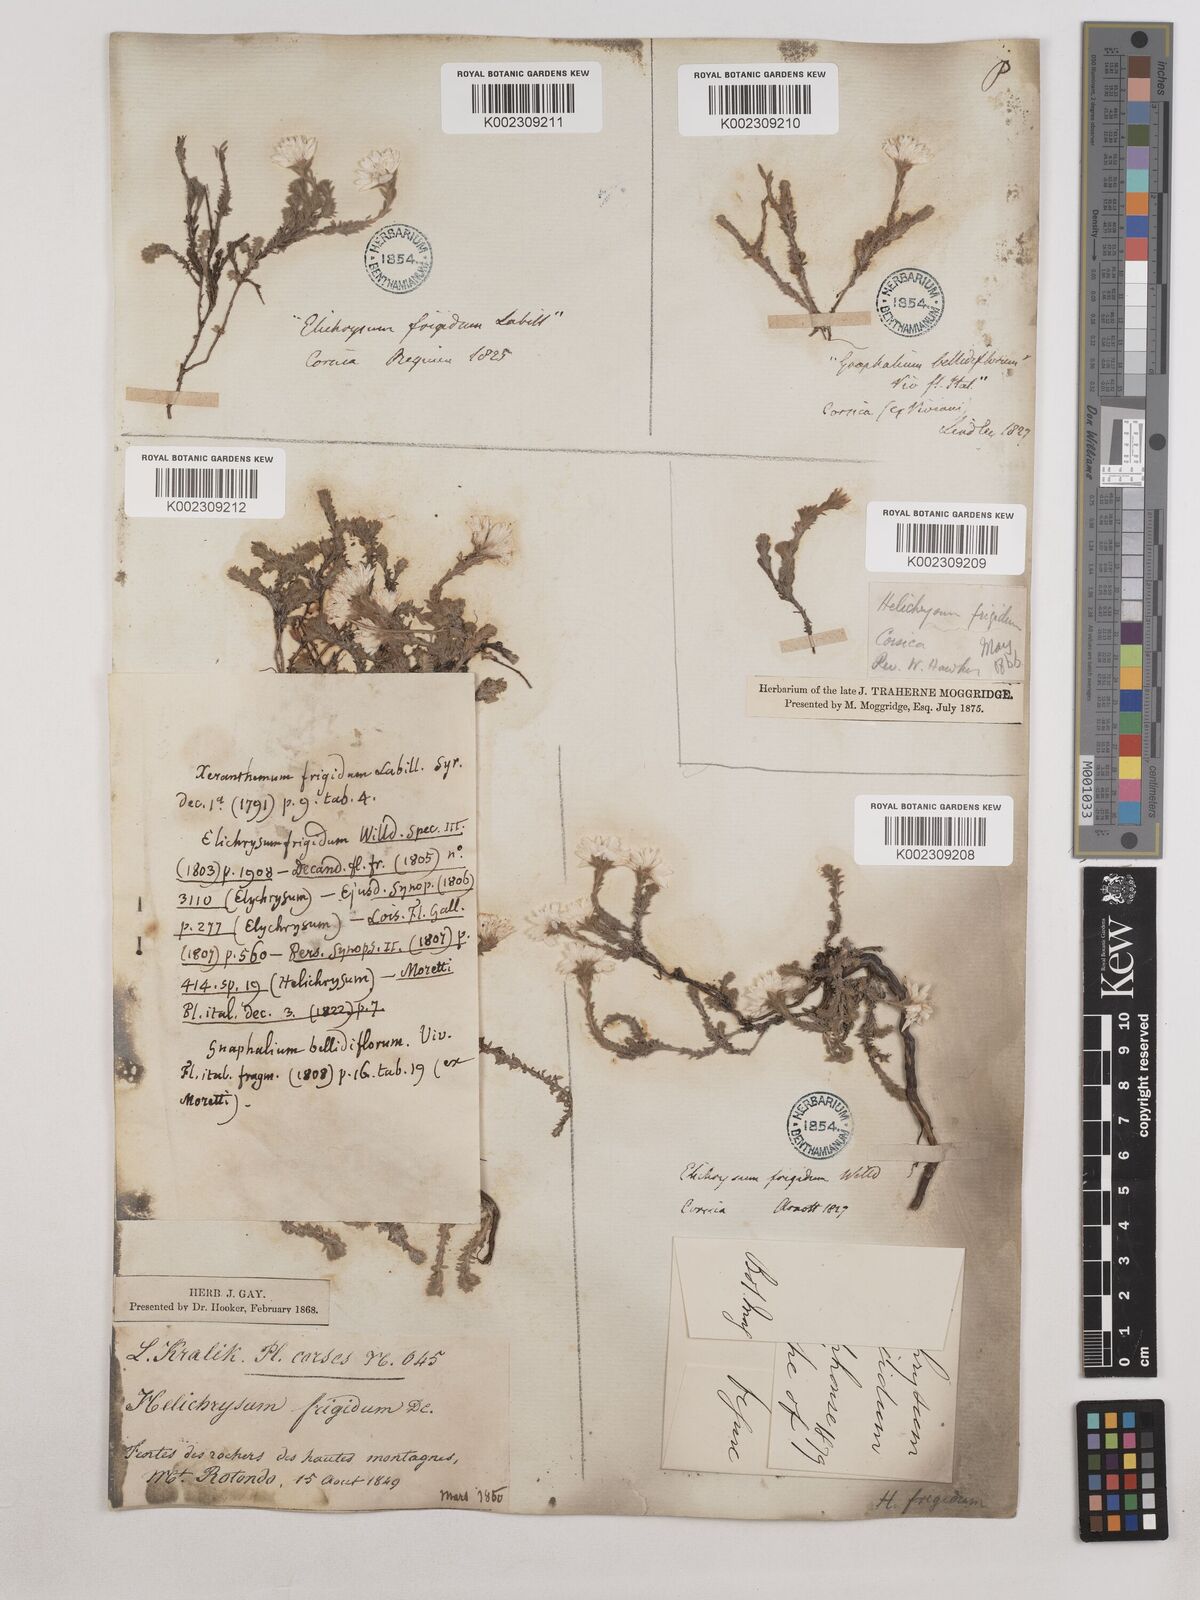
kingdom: Plantae
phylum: Tracheophyta
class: Magnoliopsida
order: Asterales
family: Asteraceae
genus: Castroviejoa
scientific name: Castroviejoa frigida
